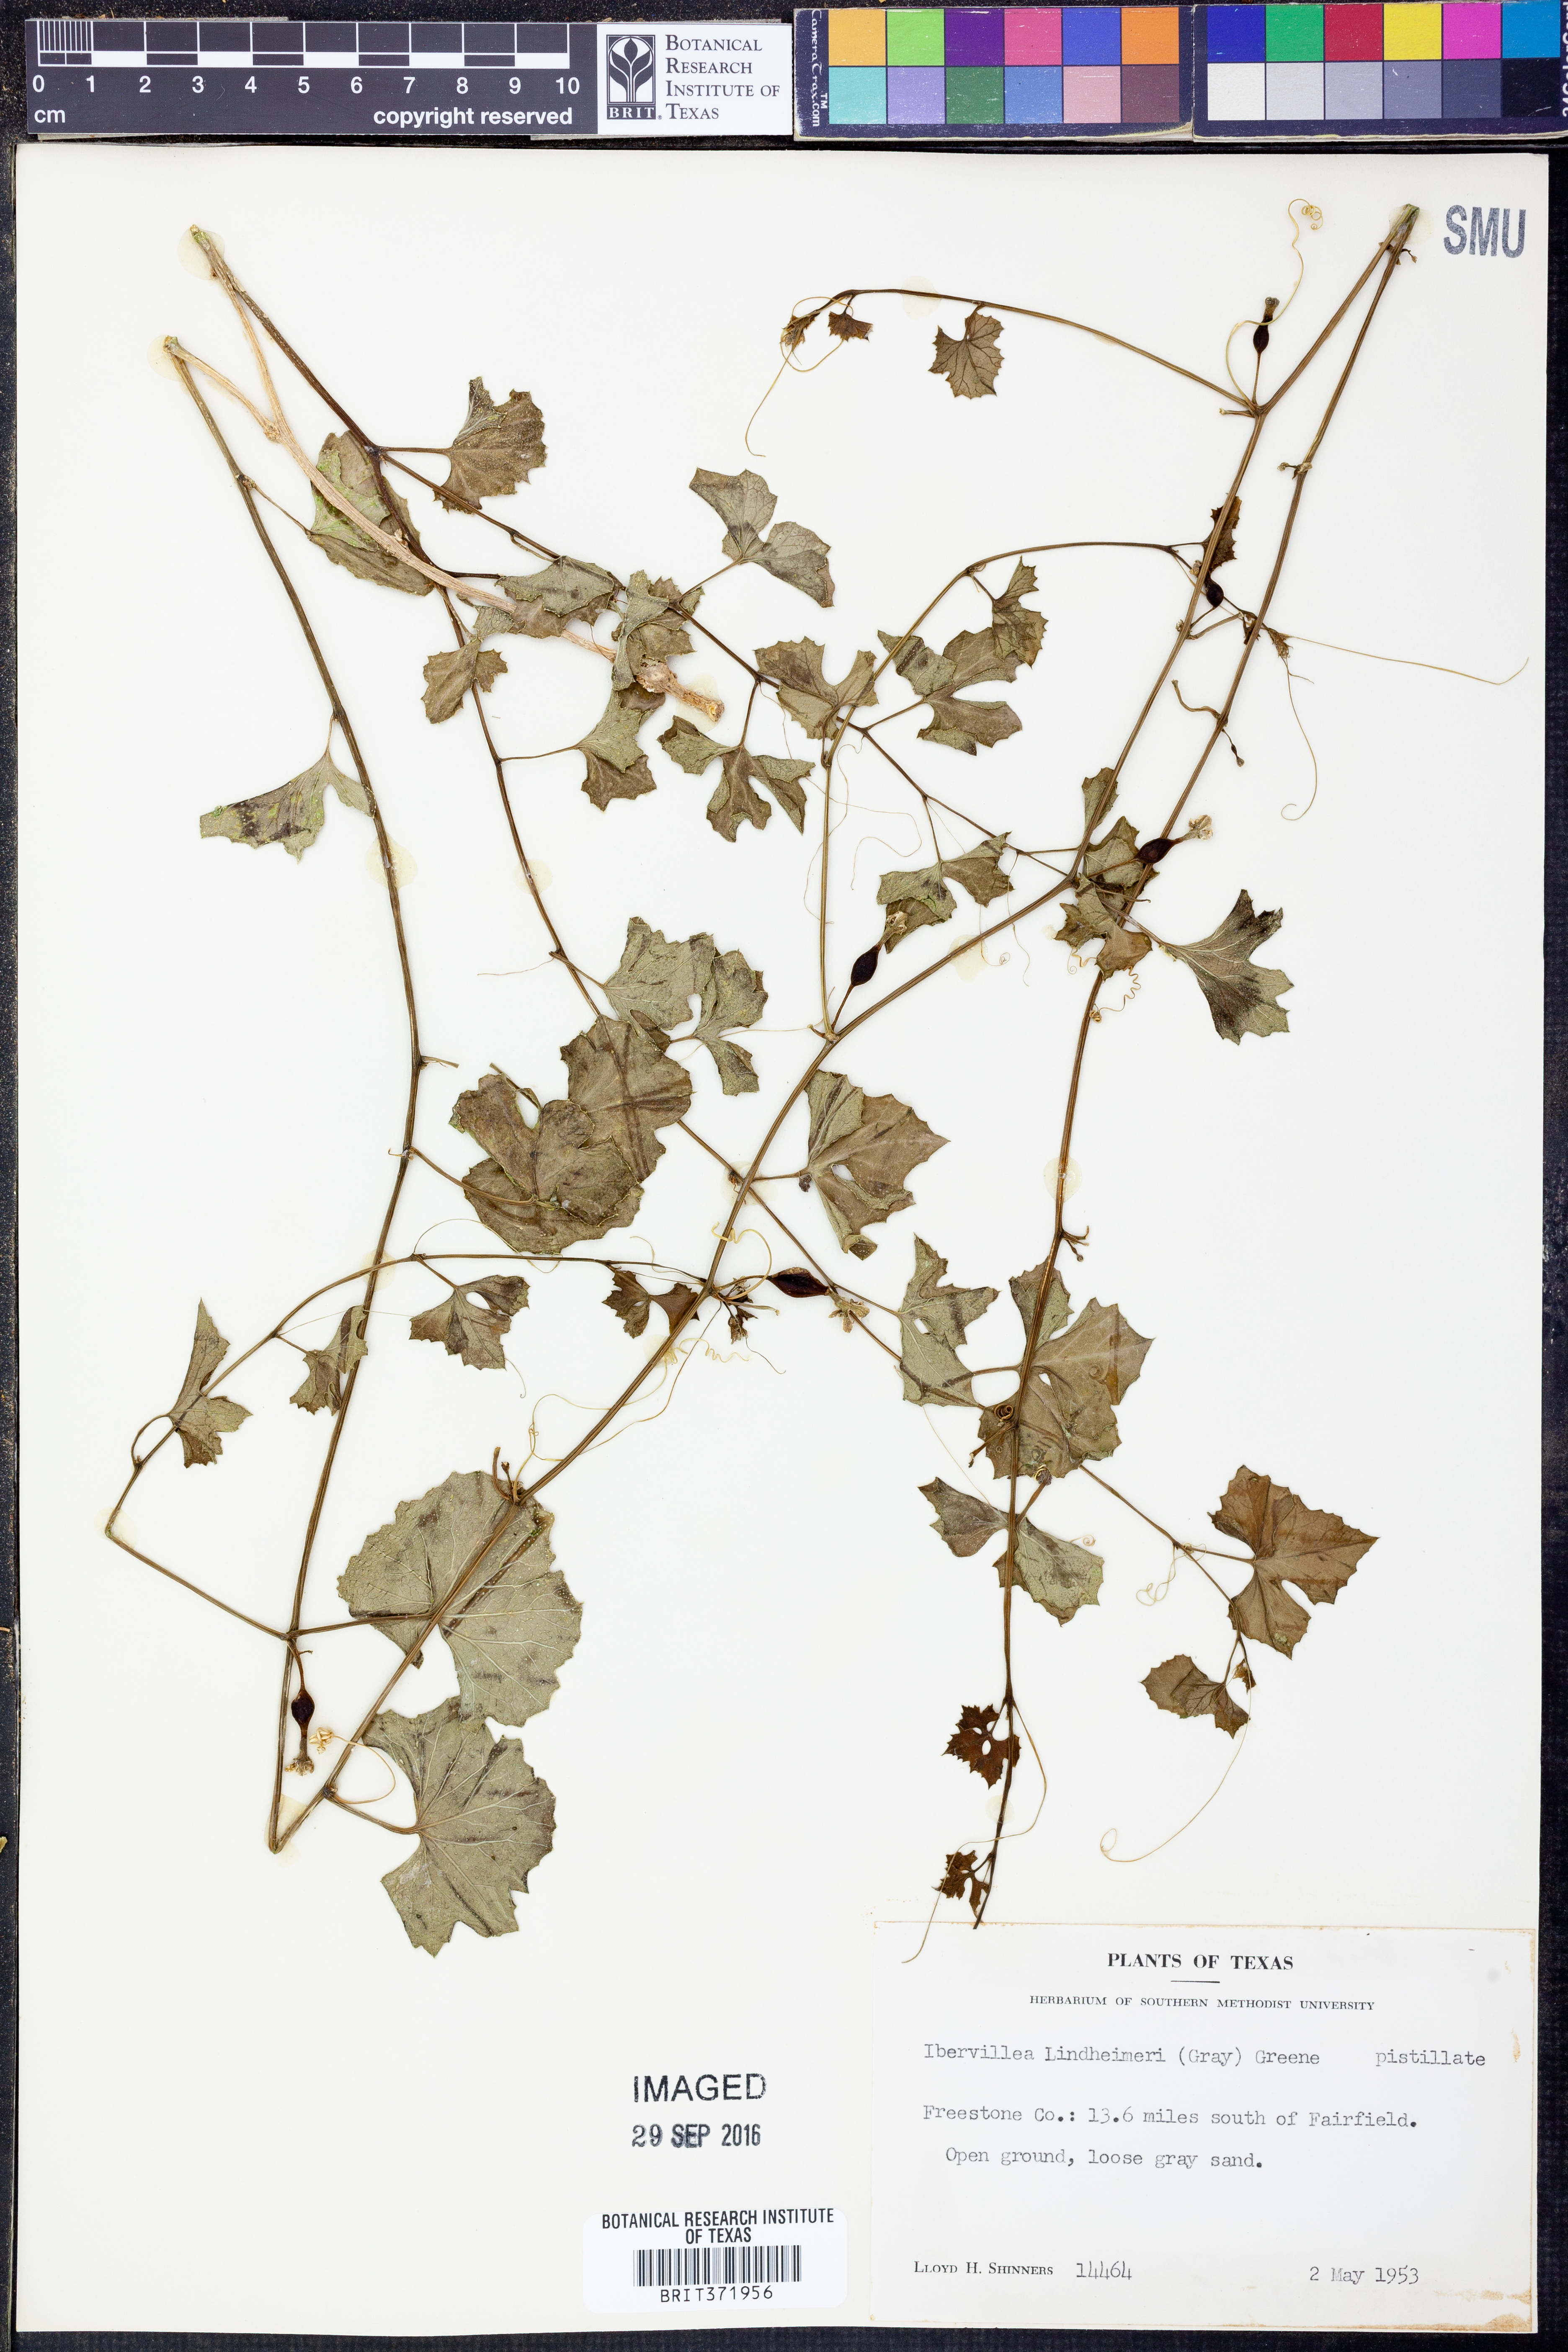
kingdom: Plantae
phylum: Tracheophyta
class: Magnoliopsida
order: Cucurbitales
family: Cucurbitaceae
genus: Ibervillea
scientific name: Ibervillea lindheimeri
